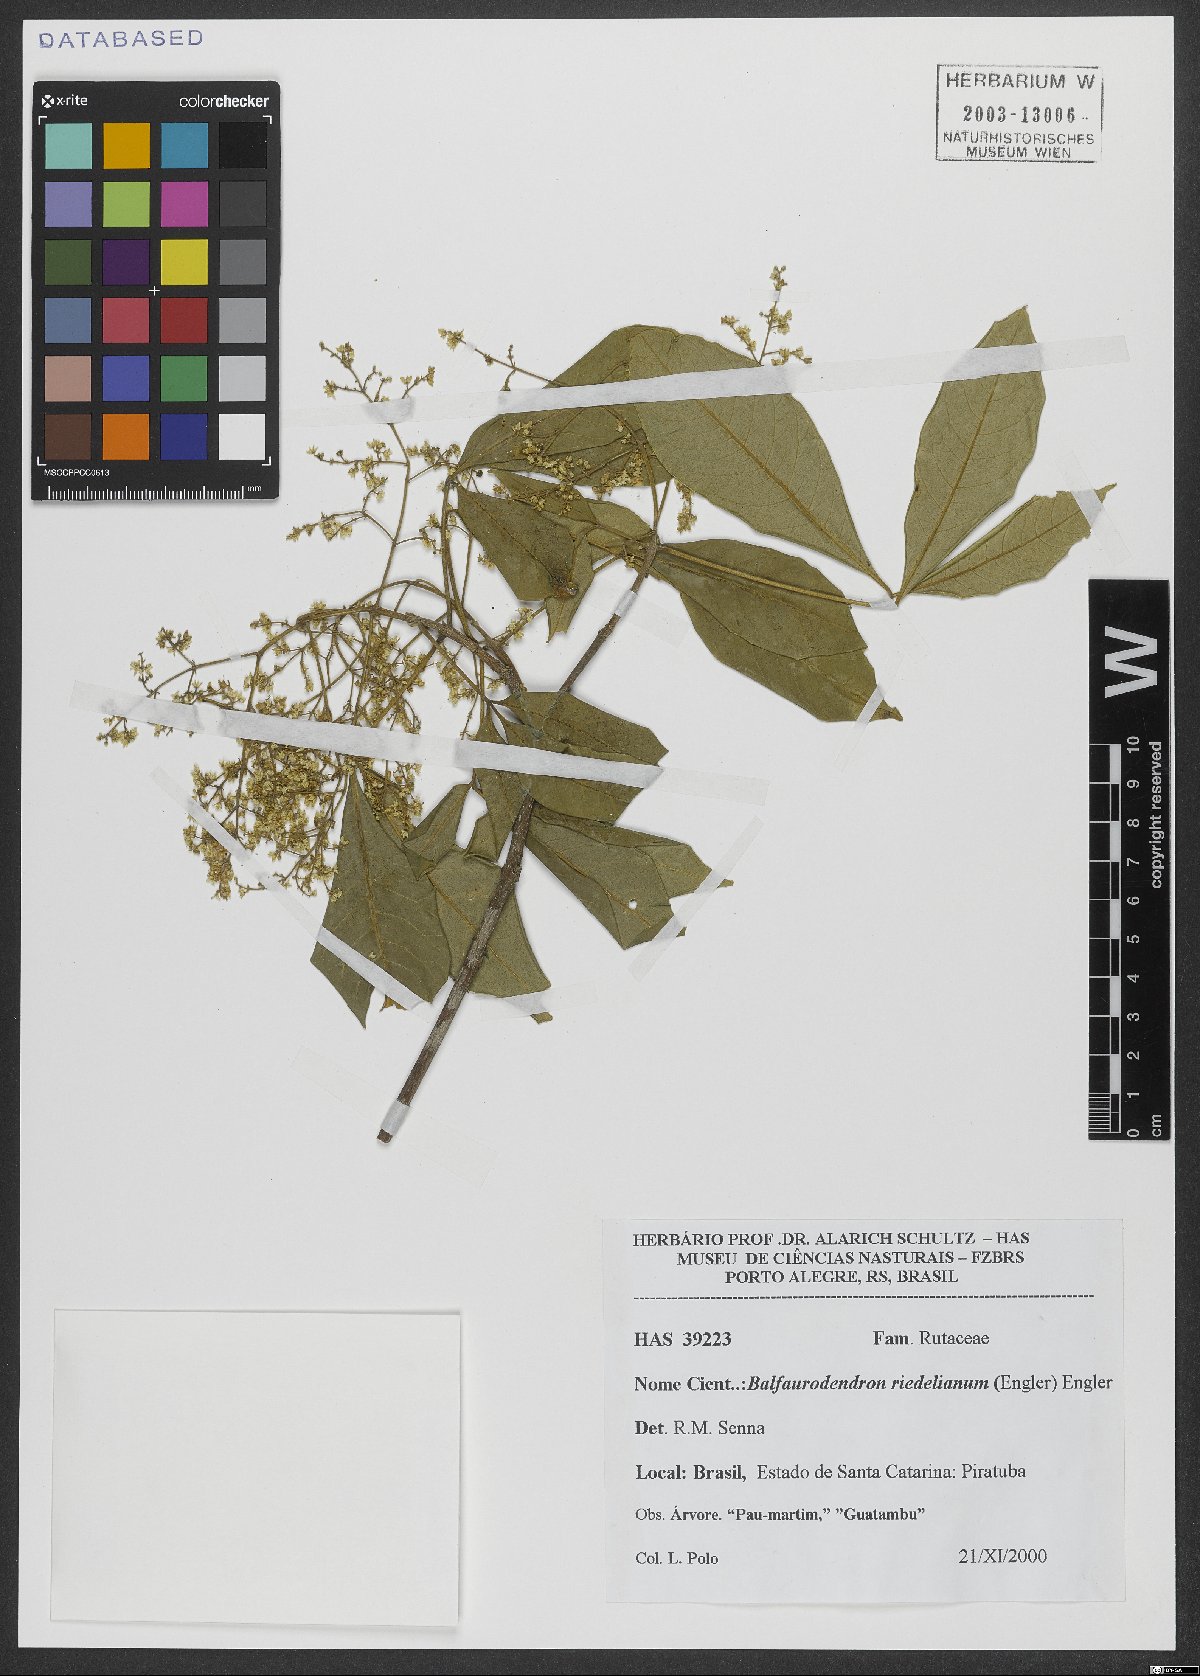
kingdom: Plantae
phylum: Tracheophyta
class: Magnoliopsida
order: Sapindales
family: Rutaceae
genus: Balfourodendron
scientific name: Balfourodendron riedelianum
